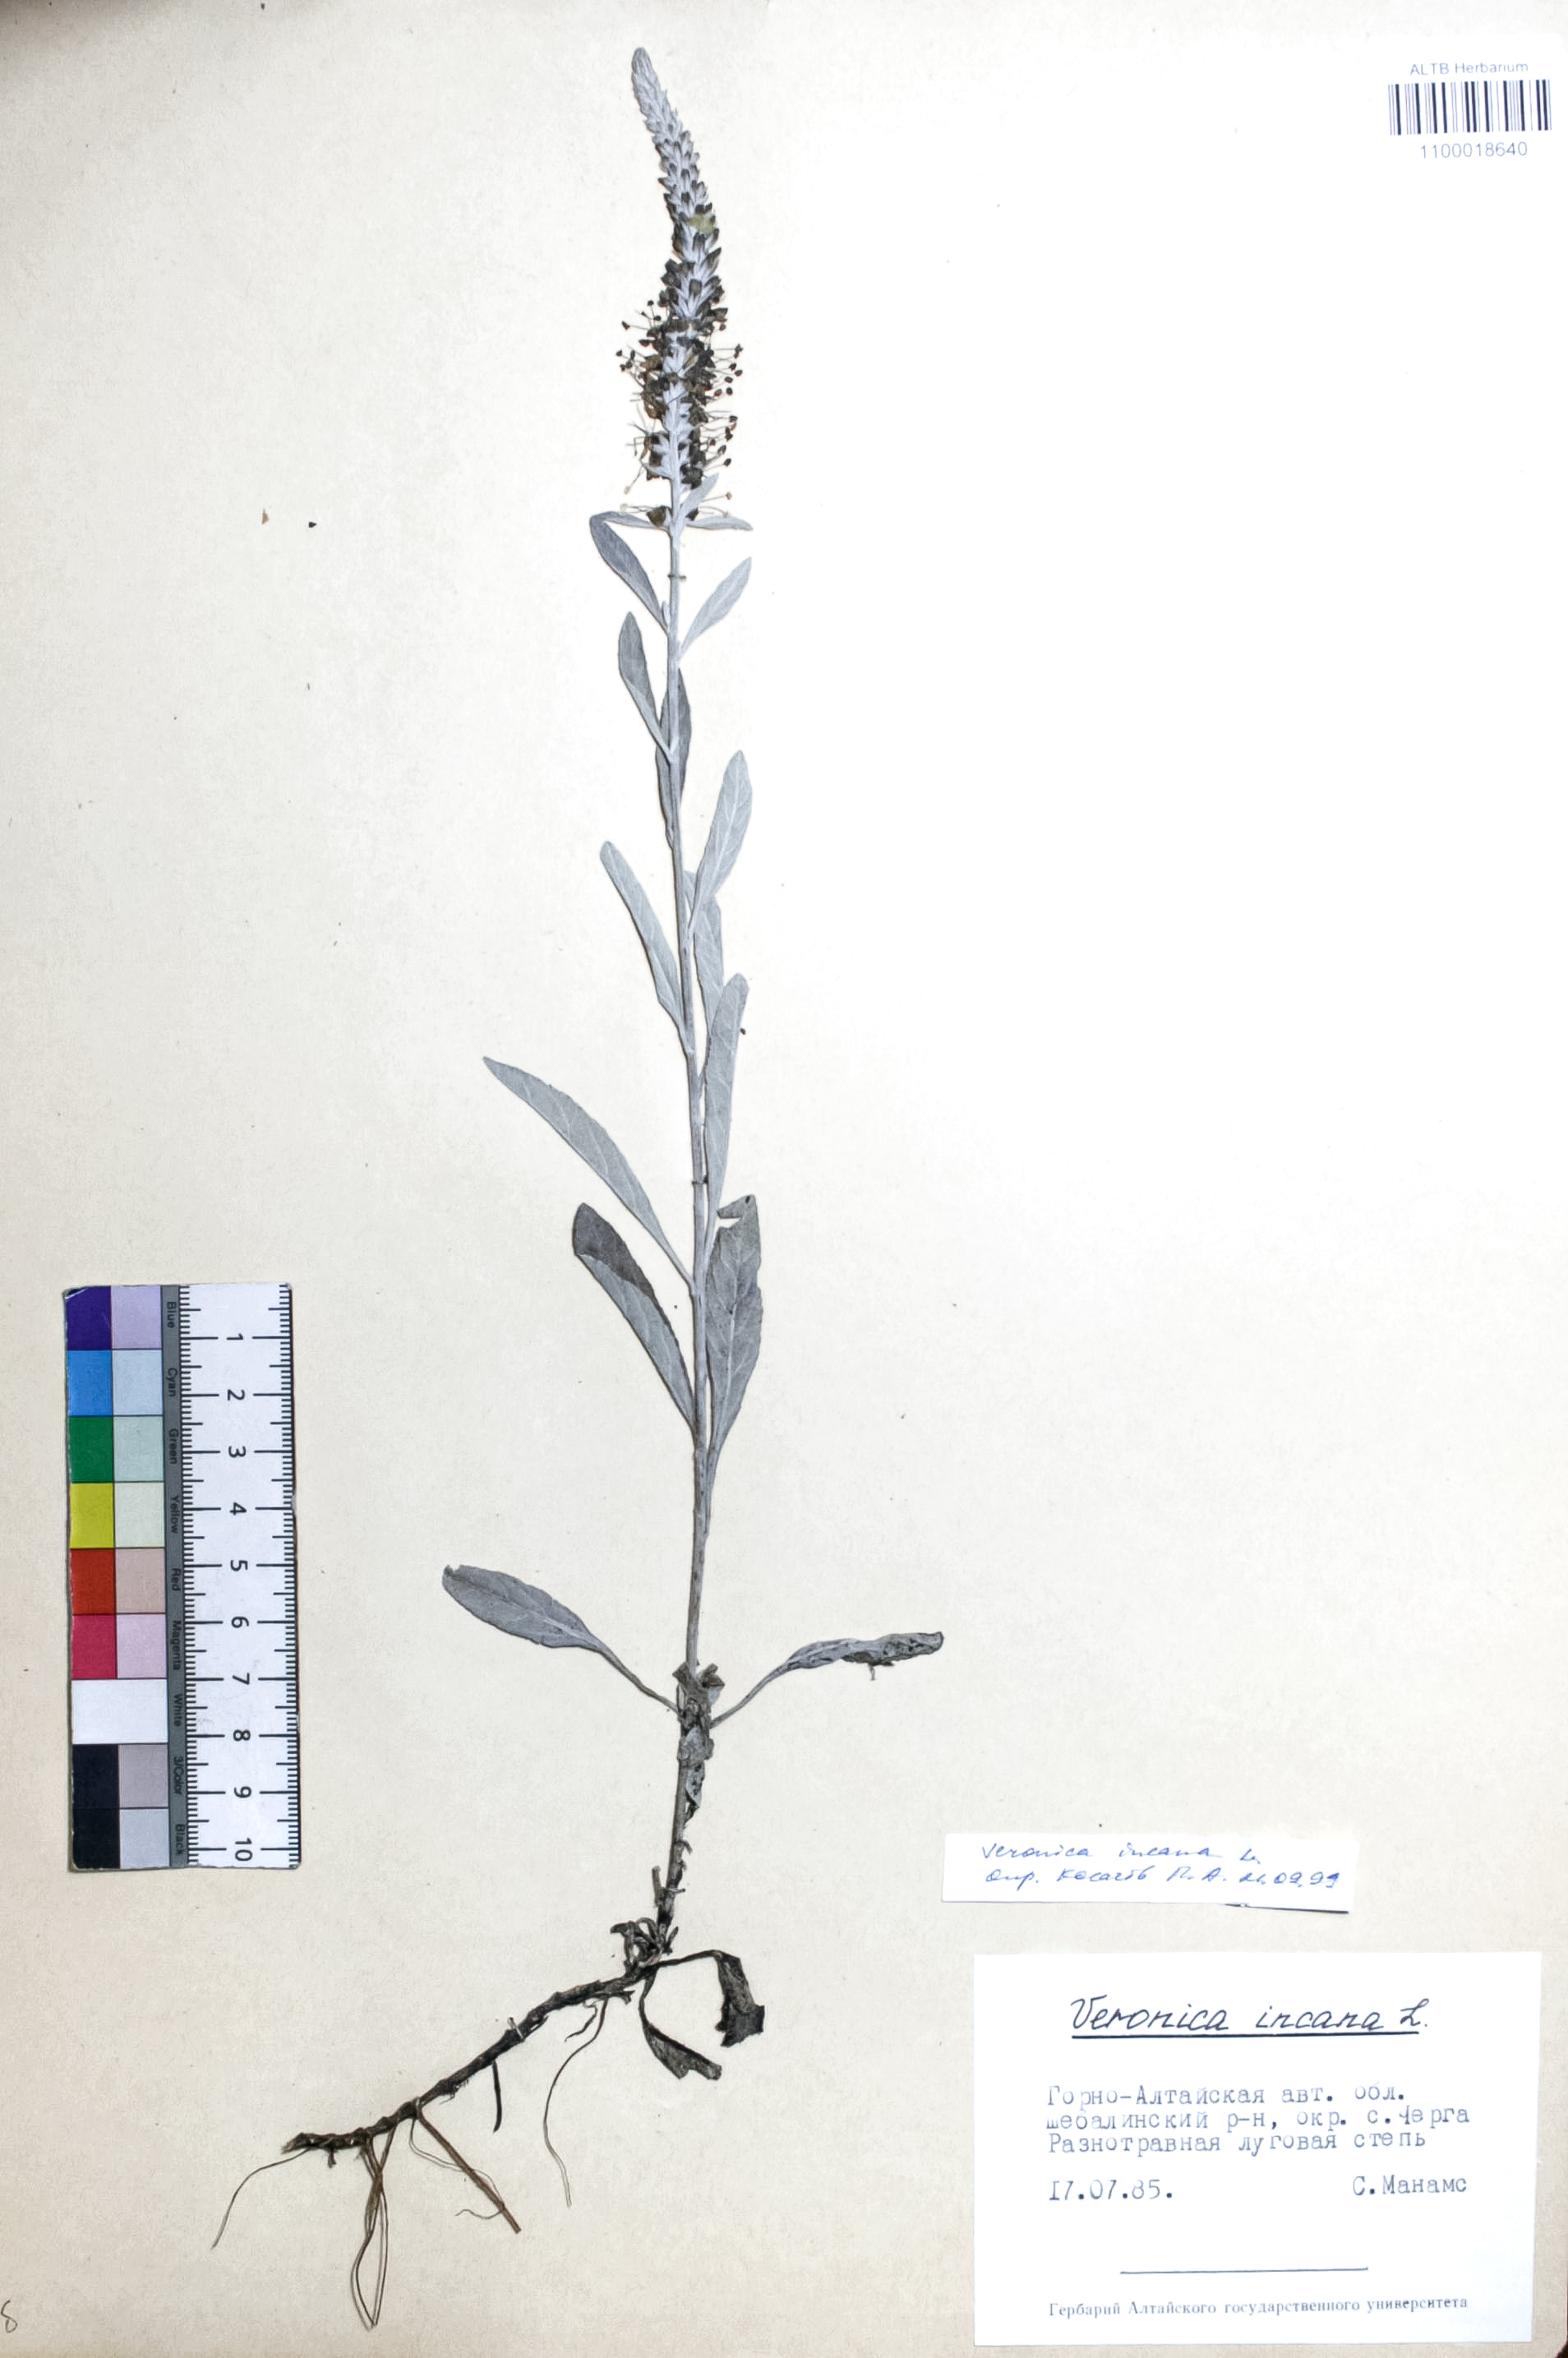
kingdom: Plantae
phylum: Tracheophyta
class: Magnoliopsida
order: Lamiales
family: Plantaginaceae
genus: Veronica
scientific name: Veronica incana
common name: Silver speedwell
